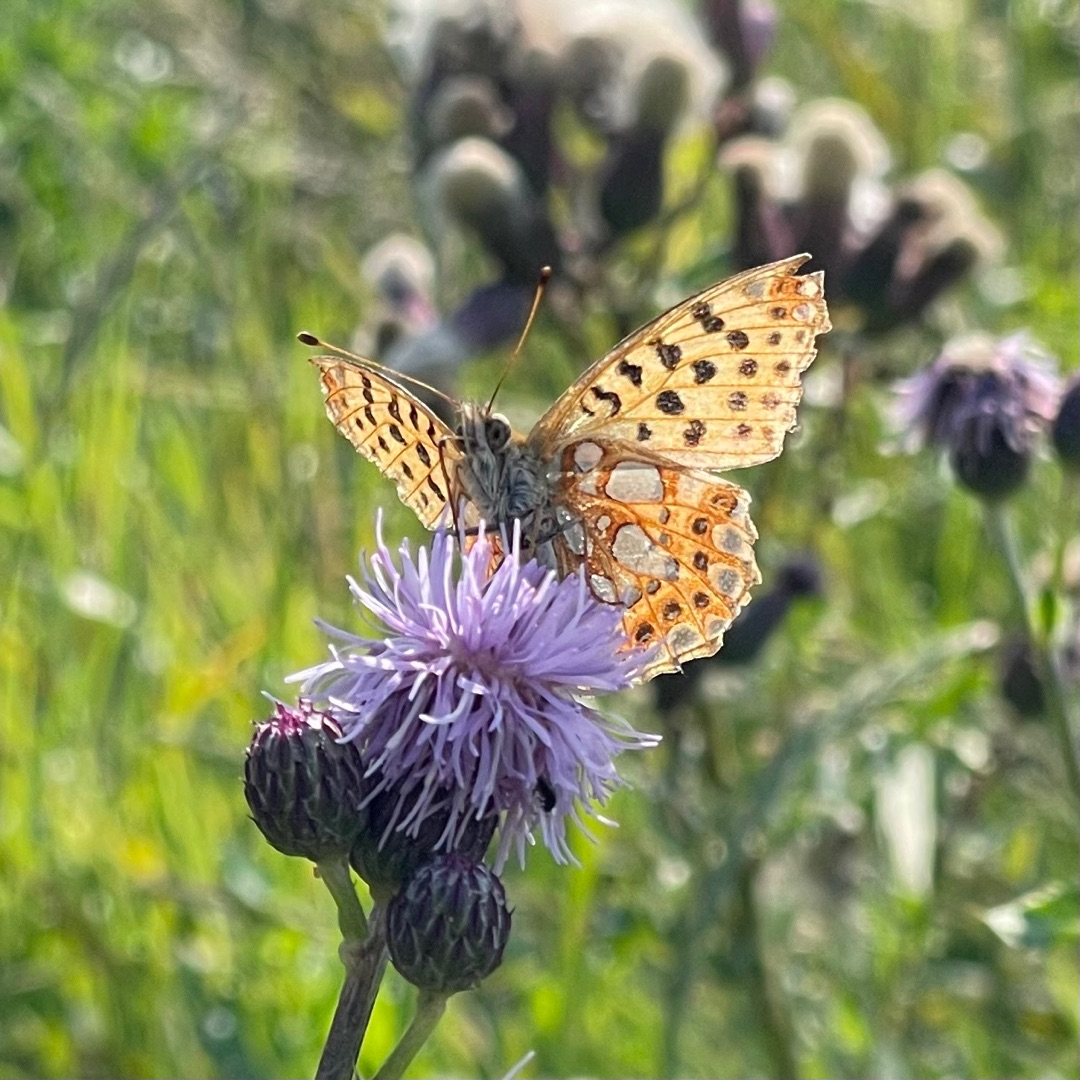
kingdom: Animalia
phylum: Arthropoda
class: Insecta
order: Lepidoptera
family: Nymphalidae
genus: Issoria
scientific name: Issoria lathonia
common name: Storplettet perlemorsommerfugl
